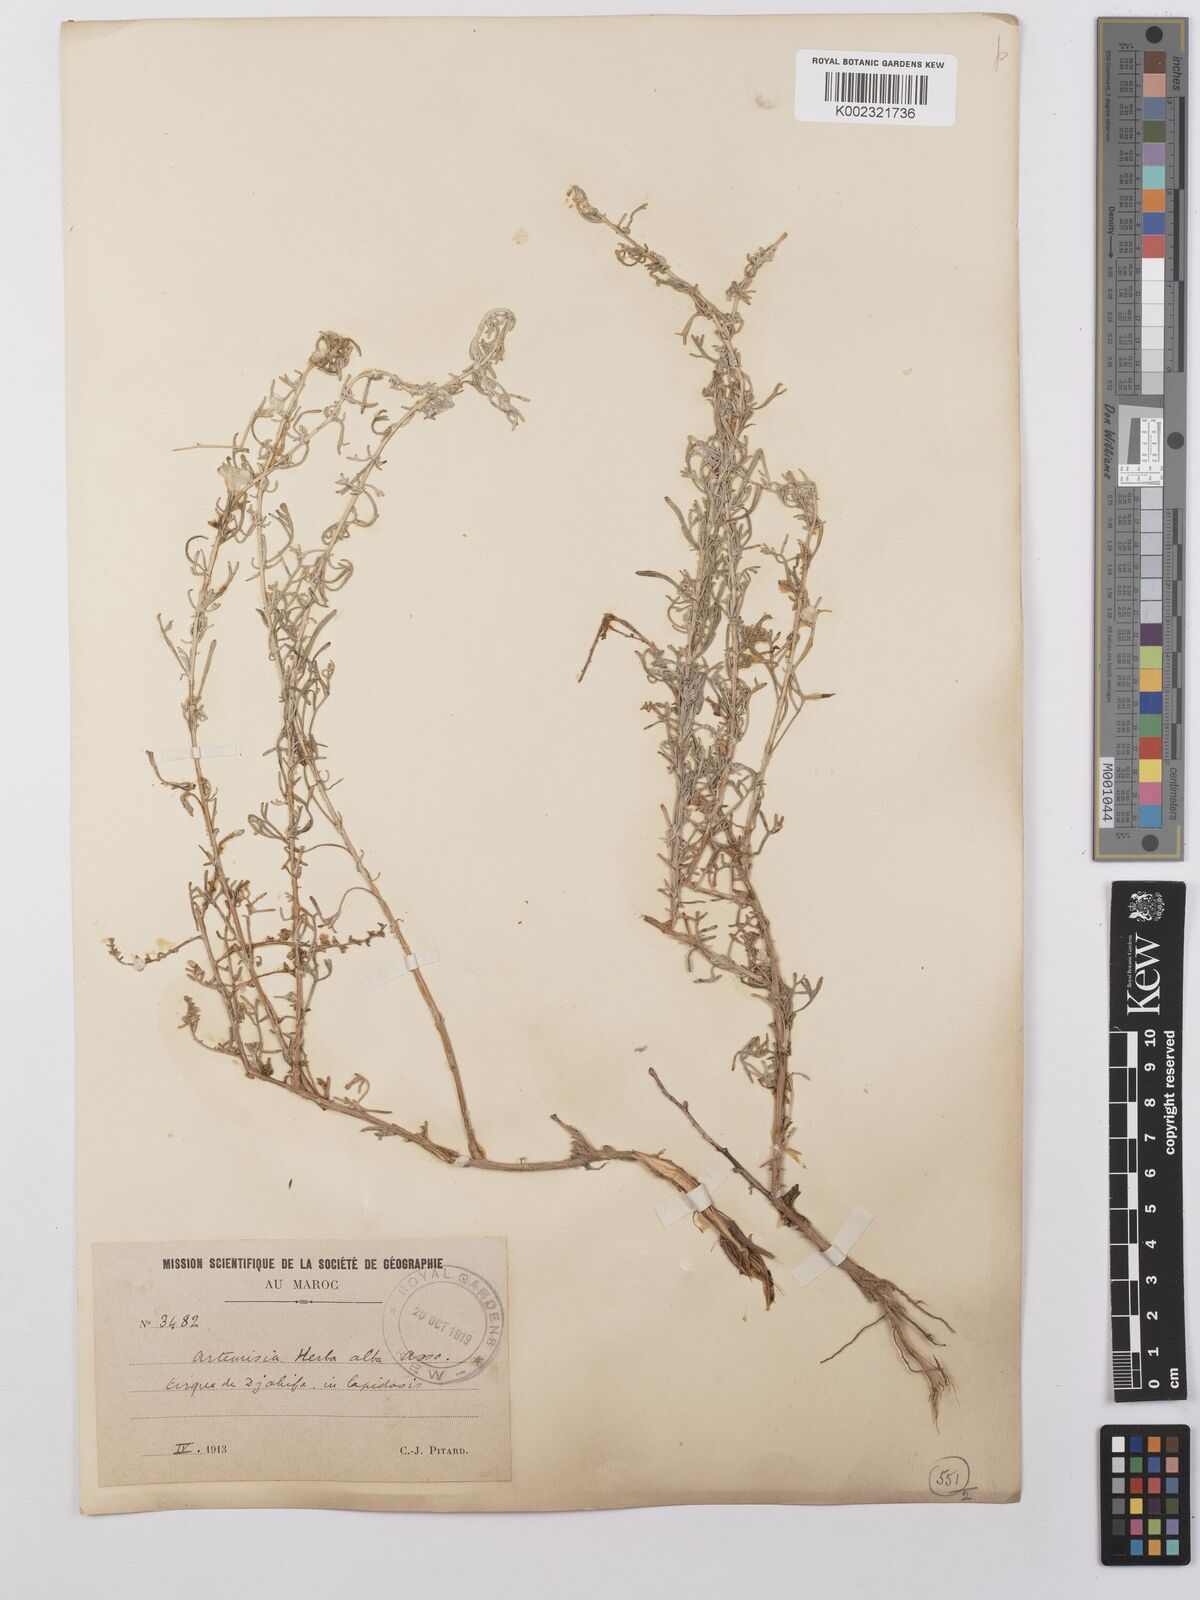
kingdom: Plantae
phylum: Tracheophyta
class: Magnoliopsida
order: Asterales
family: Asteraceae
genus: Artemisia
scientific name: Artemisia herba-alba
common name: White wormwood
